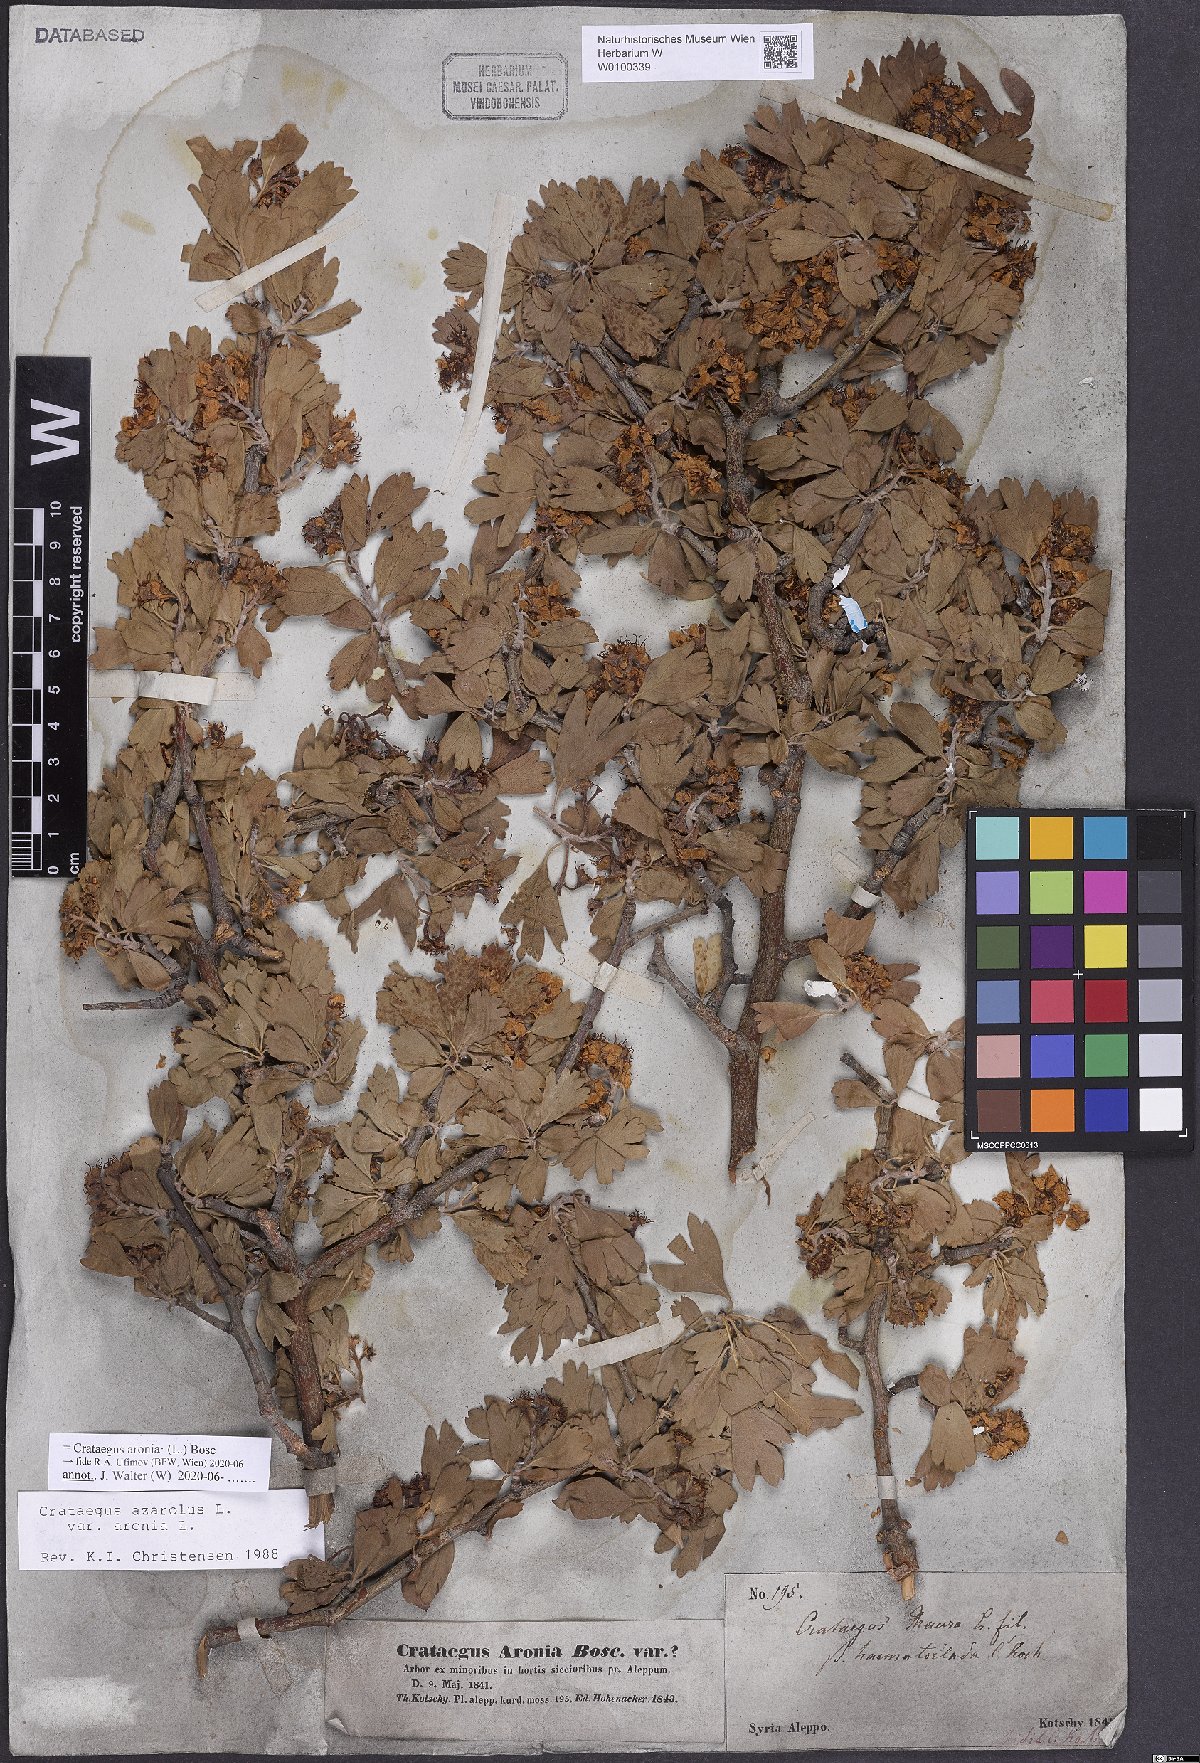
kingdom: Plantae
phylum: Tracheophyta
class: Magnoliopsida
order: Rosales
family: Rosaceae
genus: Crataegus
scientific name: Crataegus azarolus
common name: Azarole
